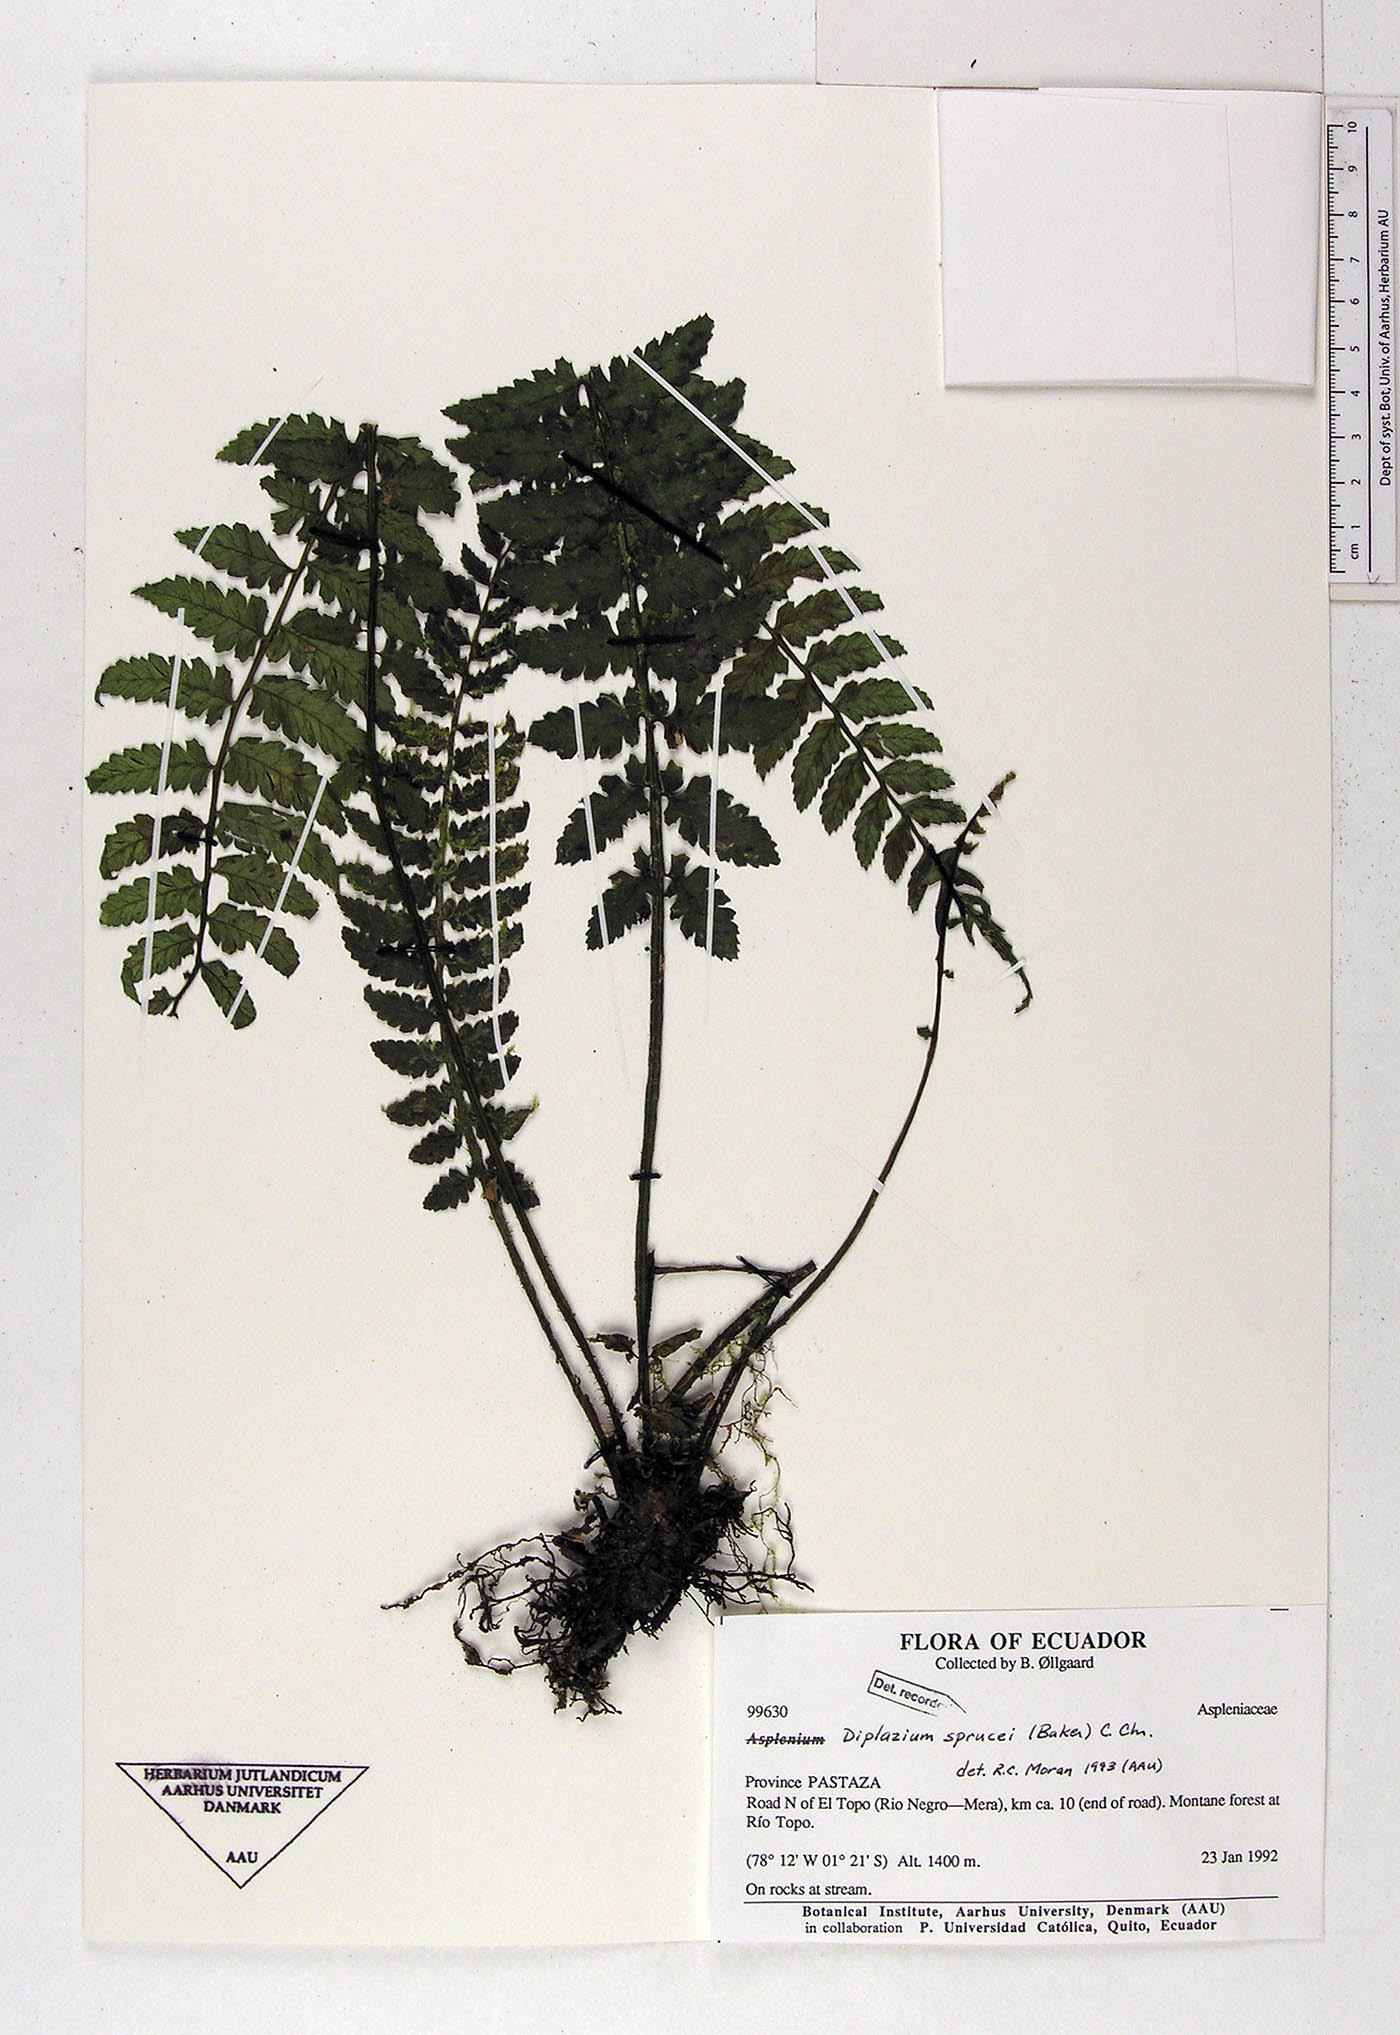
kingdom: Plantae
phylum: Tracheophyta
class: Polypodiopsida
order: Polypodiales
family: Athyriaceae
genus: Diplazium
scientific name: Diplazium sprucei
